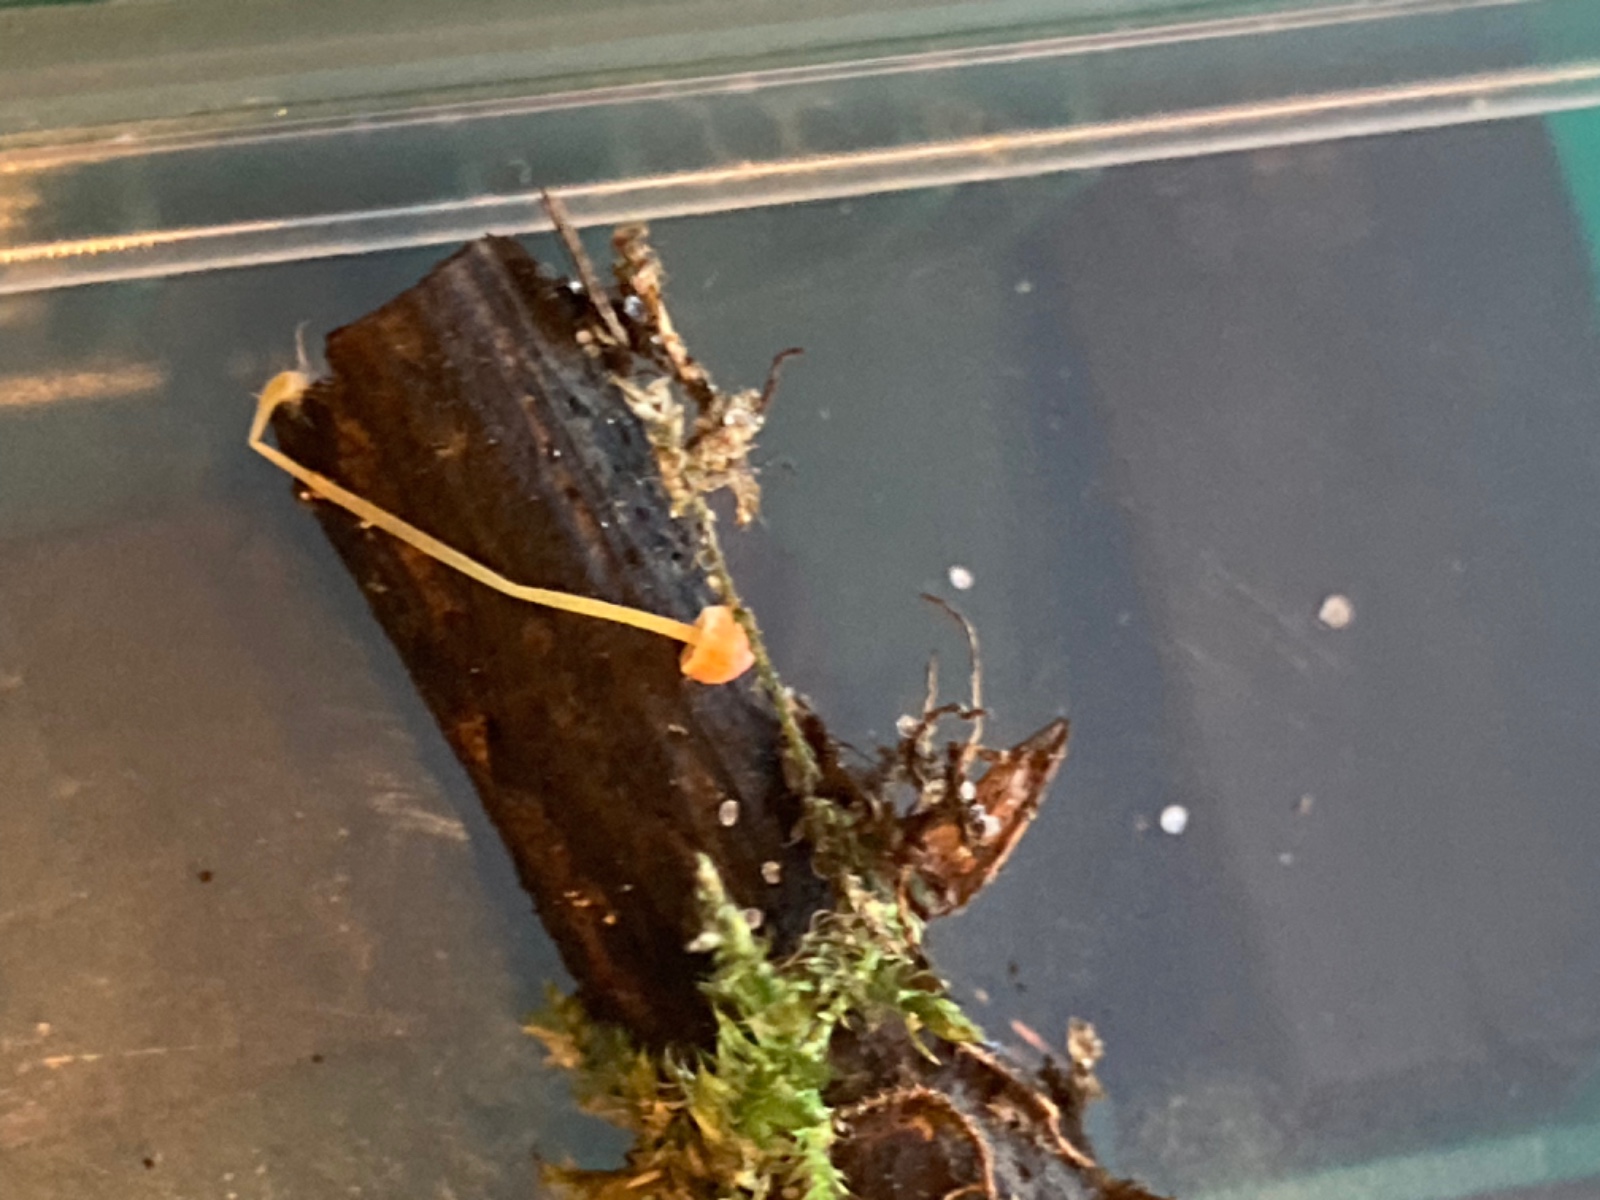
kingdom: Fungi
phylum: Basidiomycota
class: Agaricomycetes
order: Agaricales
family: Mycenaceae
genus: Mycena
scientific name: Mycena acicula
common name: orange huesvamp
